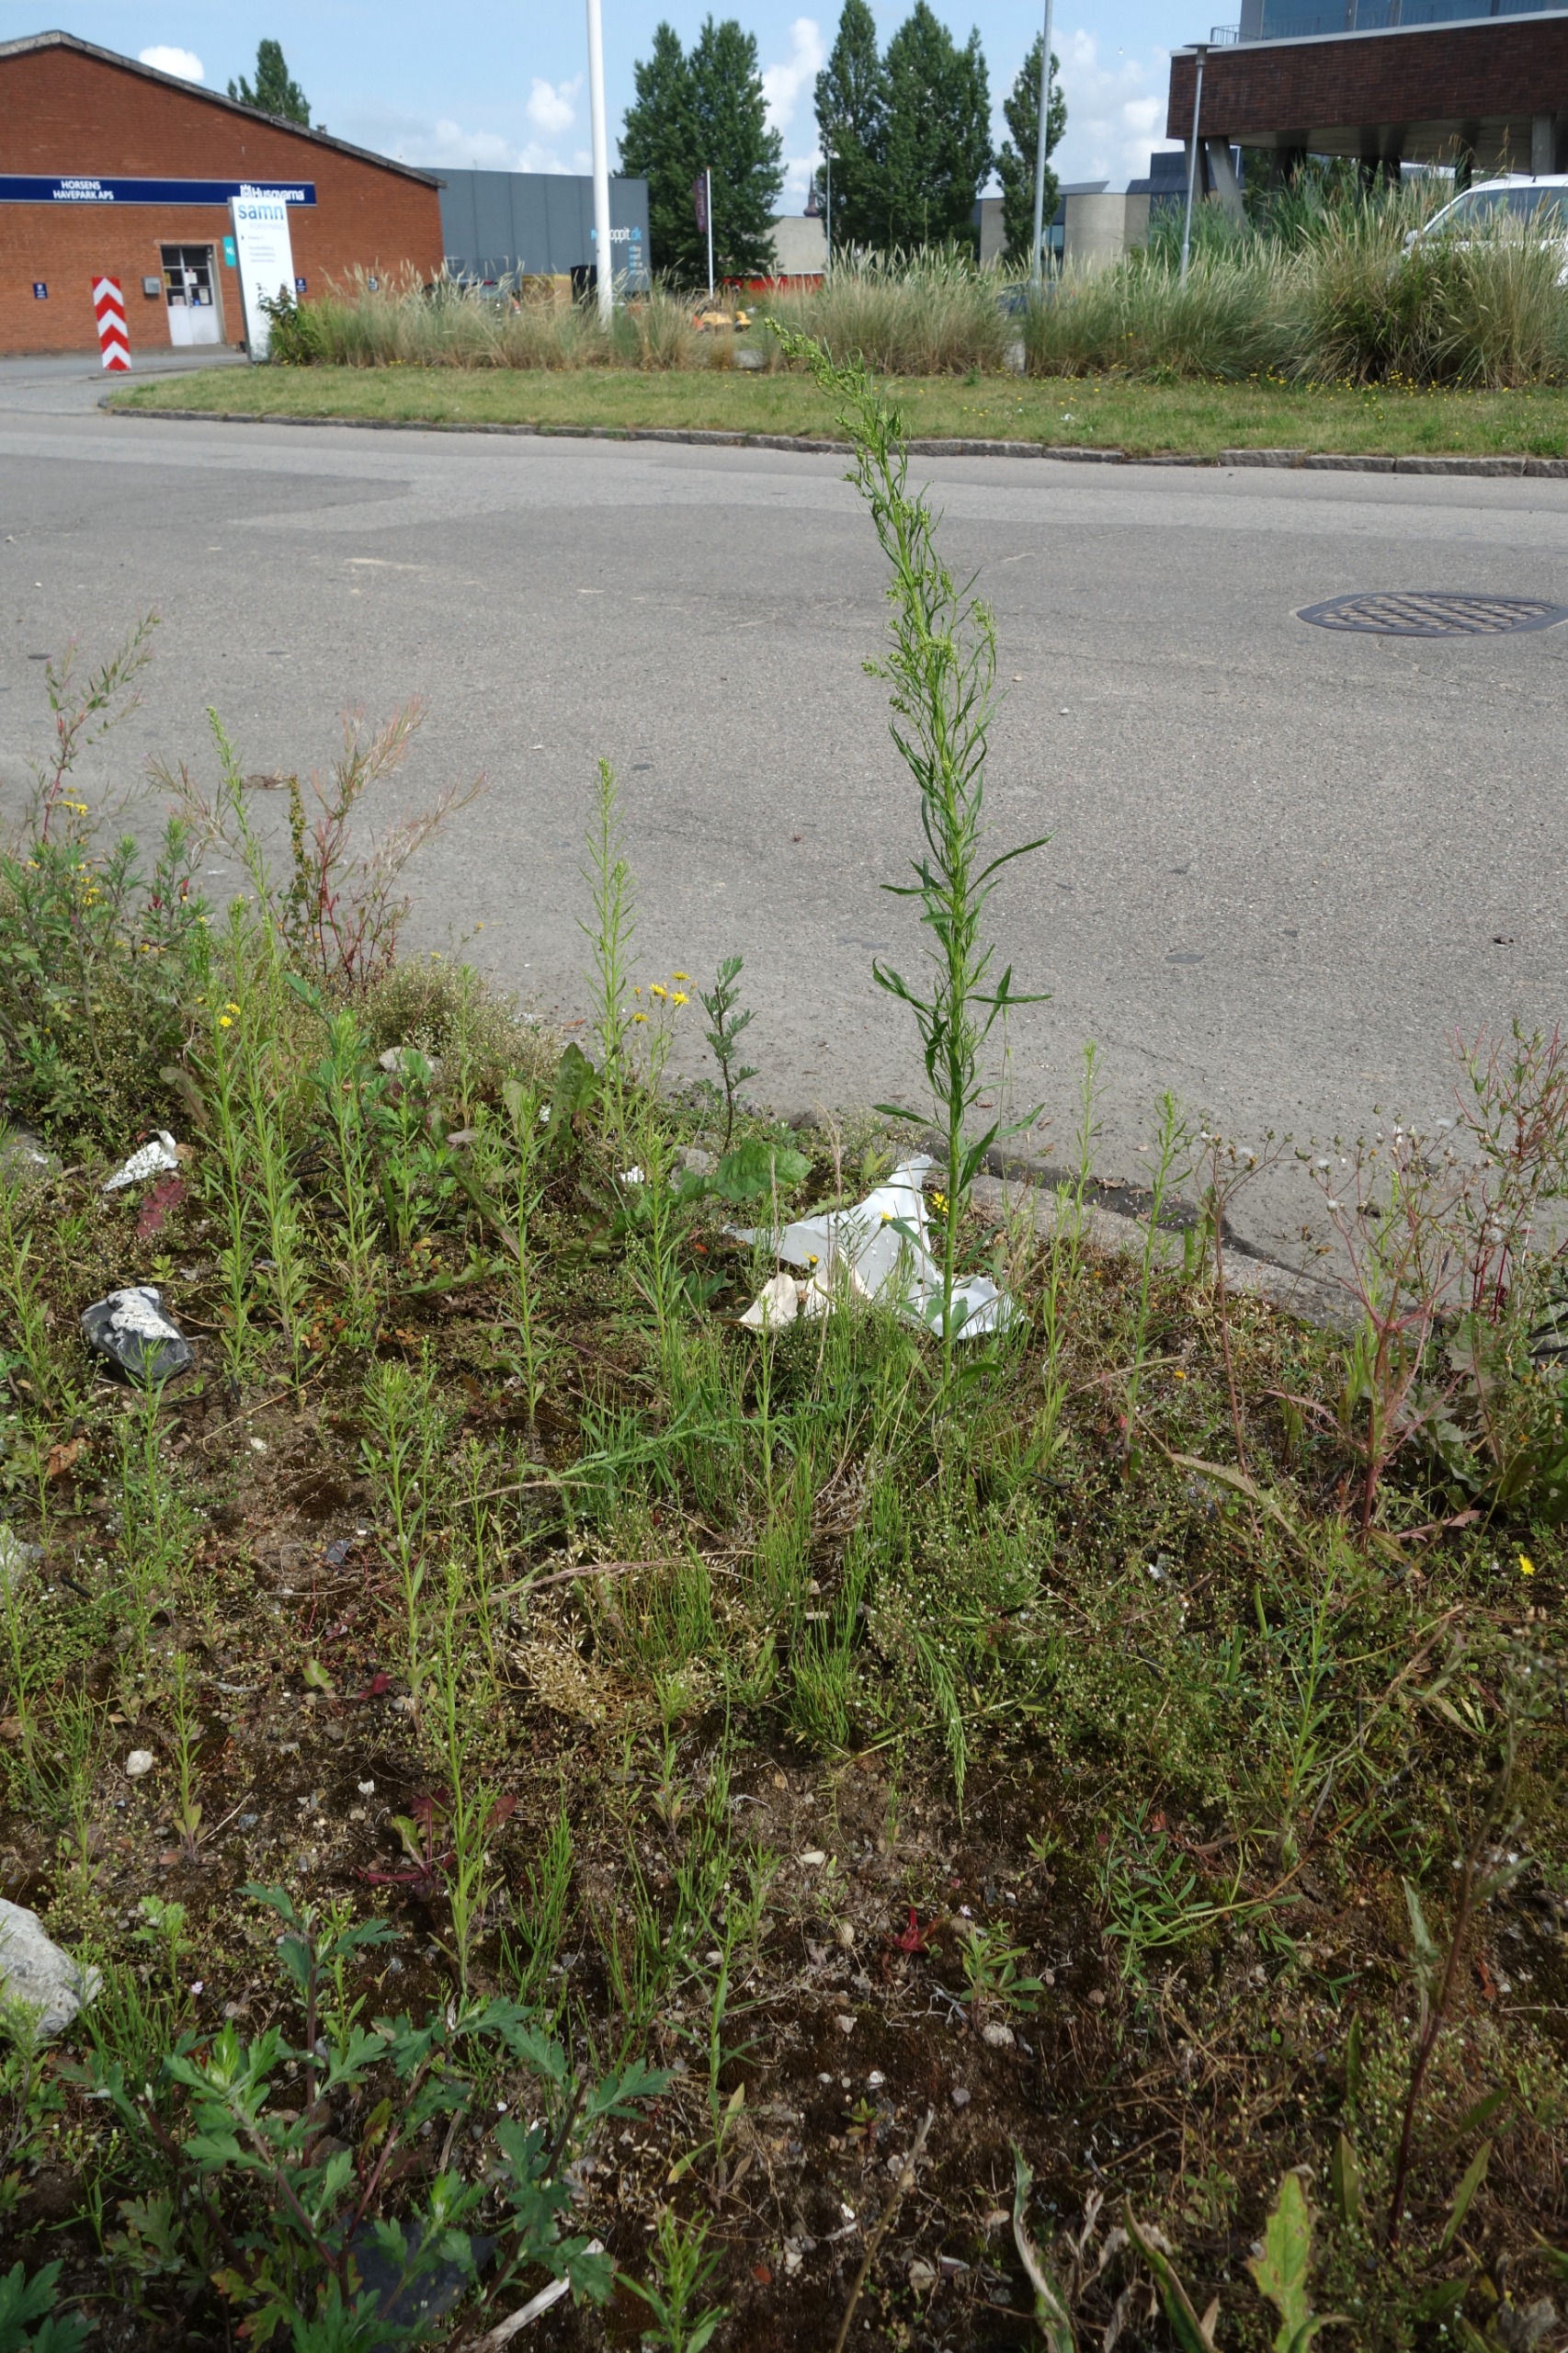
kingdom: Plantae
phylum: Tracheophyta
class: Magnoliopsida
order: Asterales
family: Asteraceae
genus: Erigeron
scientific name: Erigeron canadensis
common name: Kanadisk bakkestjerne
